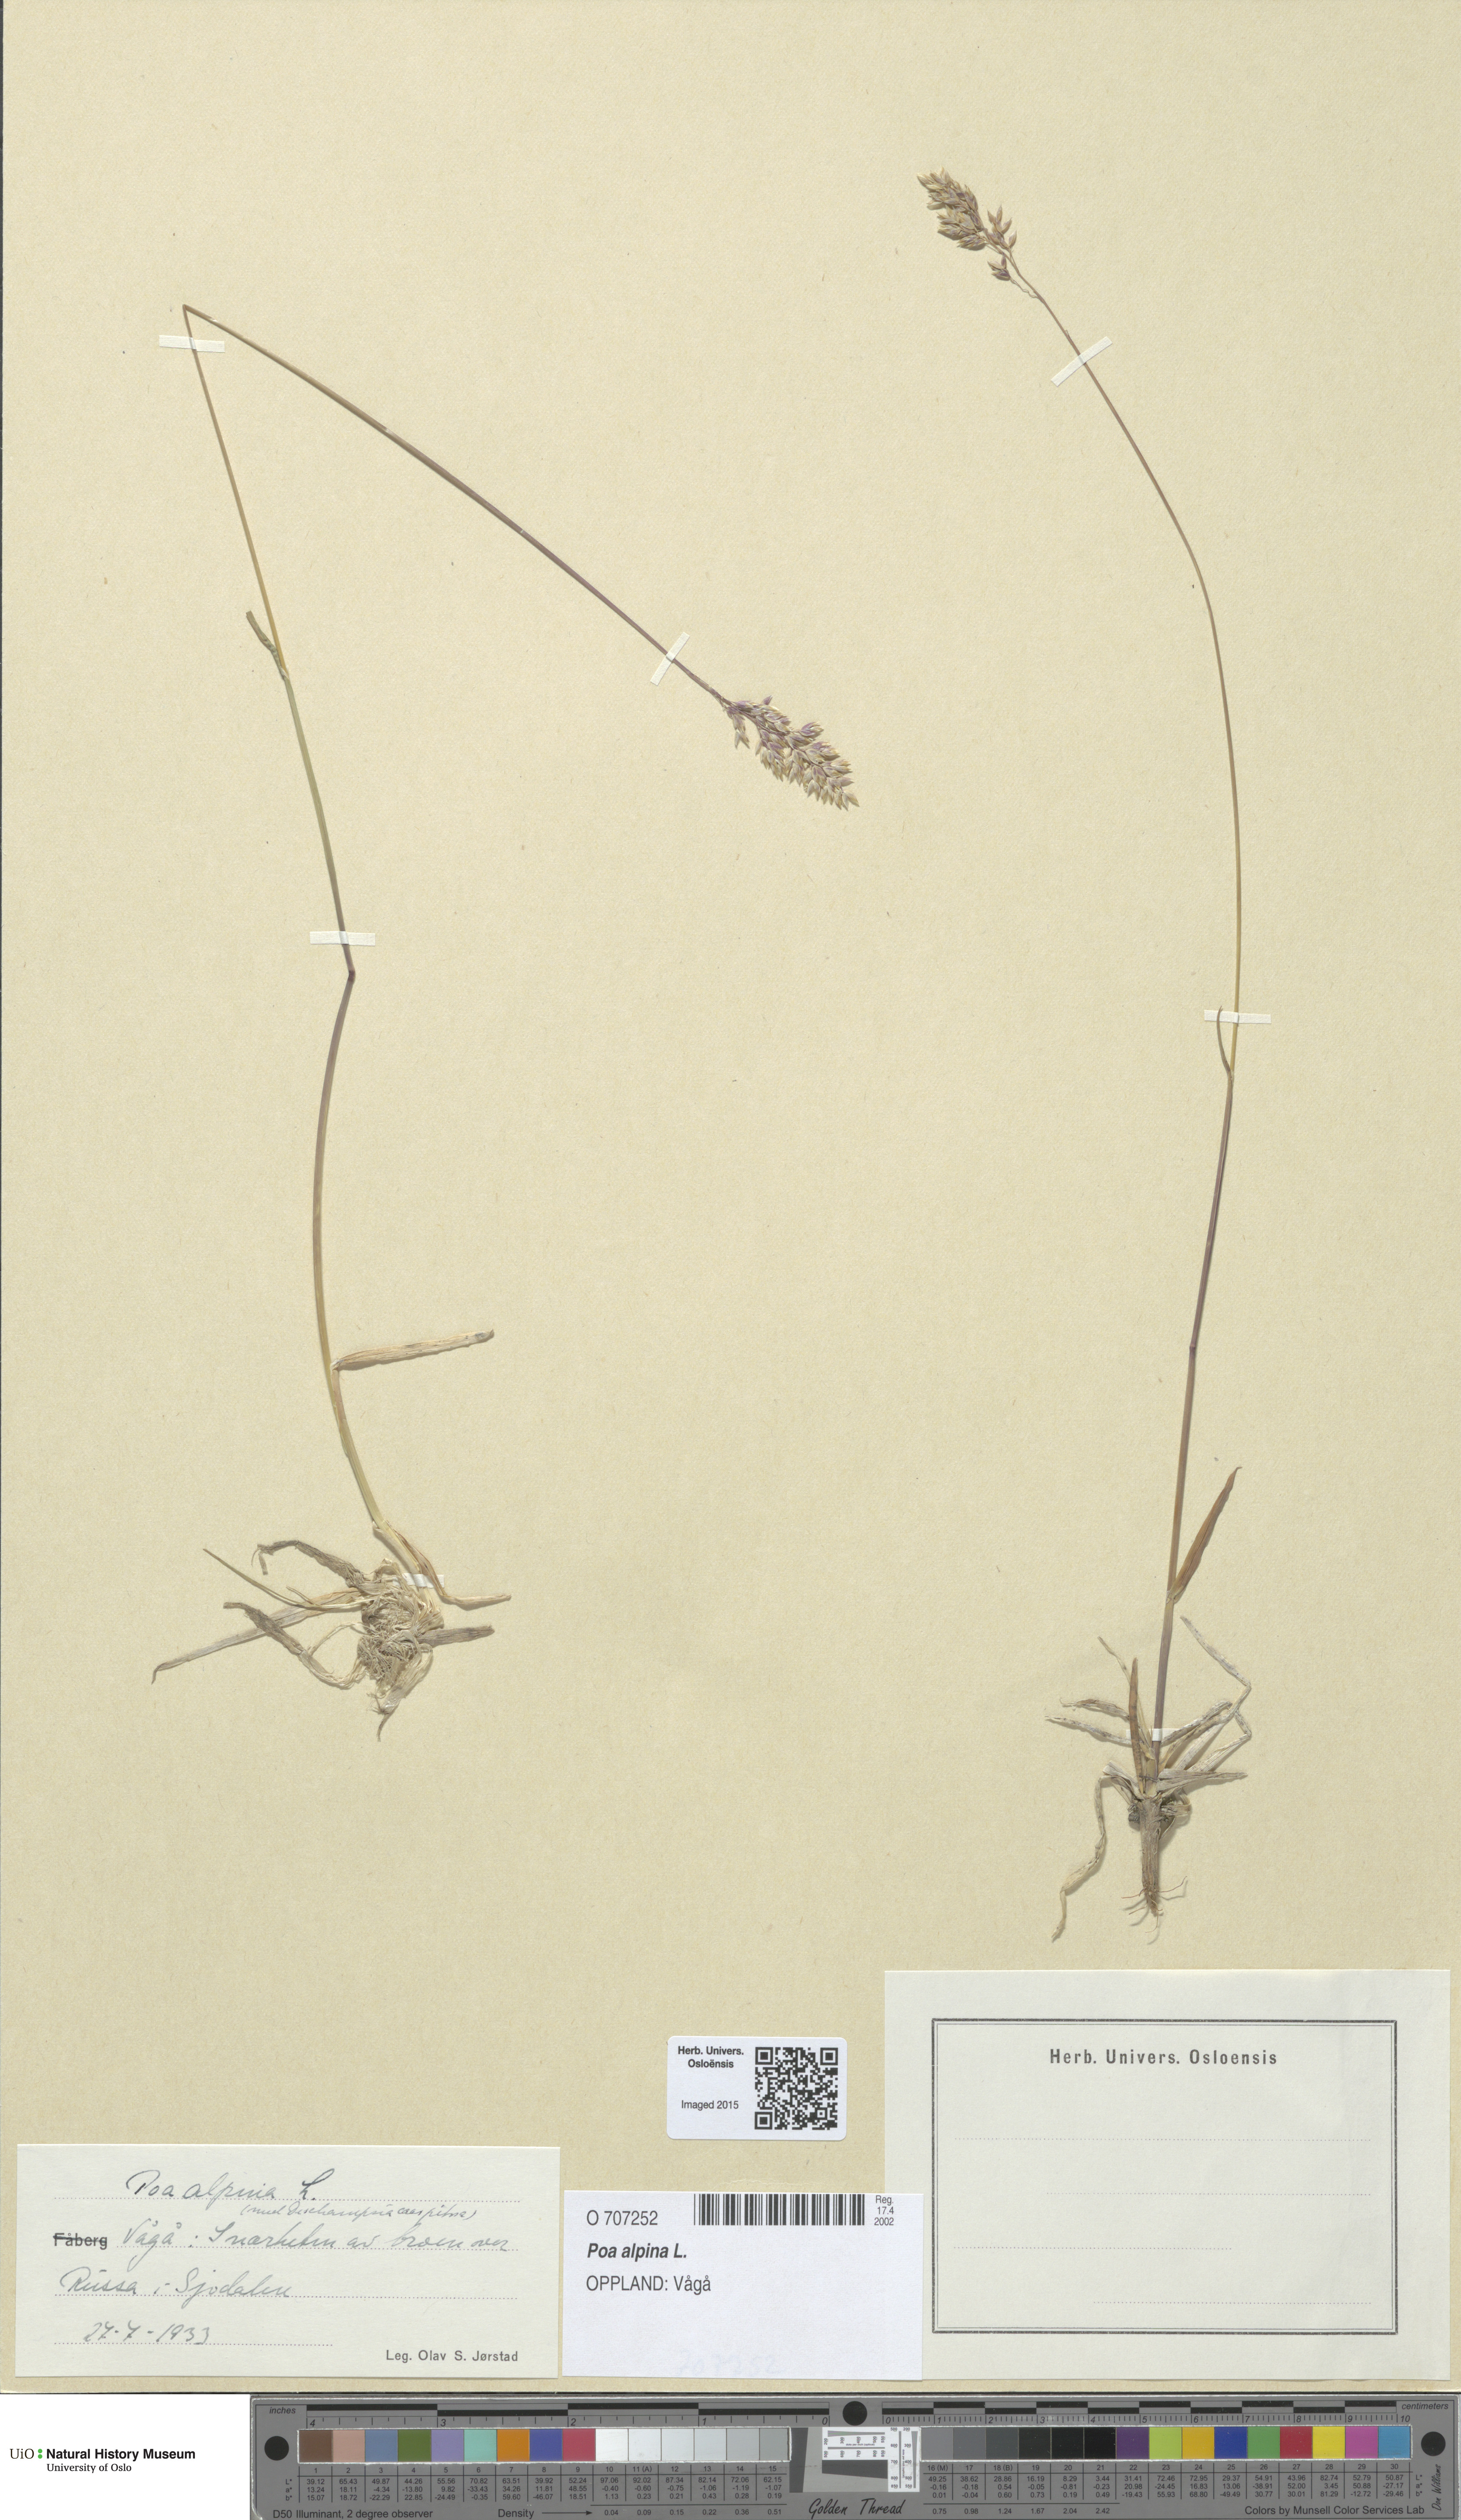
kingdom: Plantae
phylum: Tracheophyta
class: Liliopsida
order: Poales
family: Poaceae
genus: Poa
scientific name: Poa alpina
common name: Alpine bluegrass
